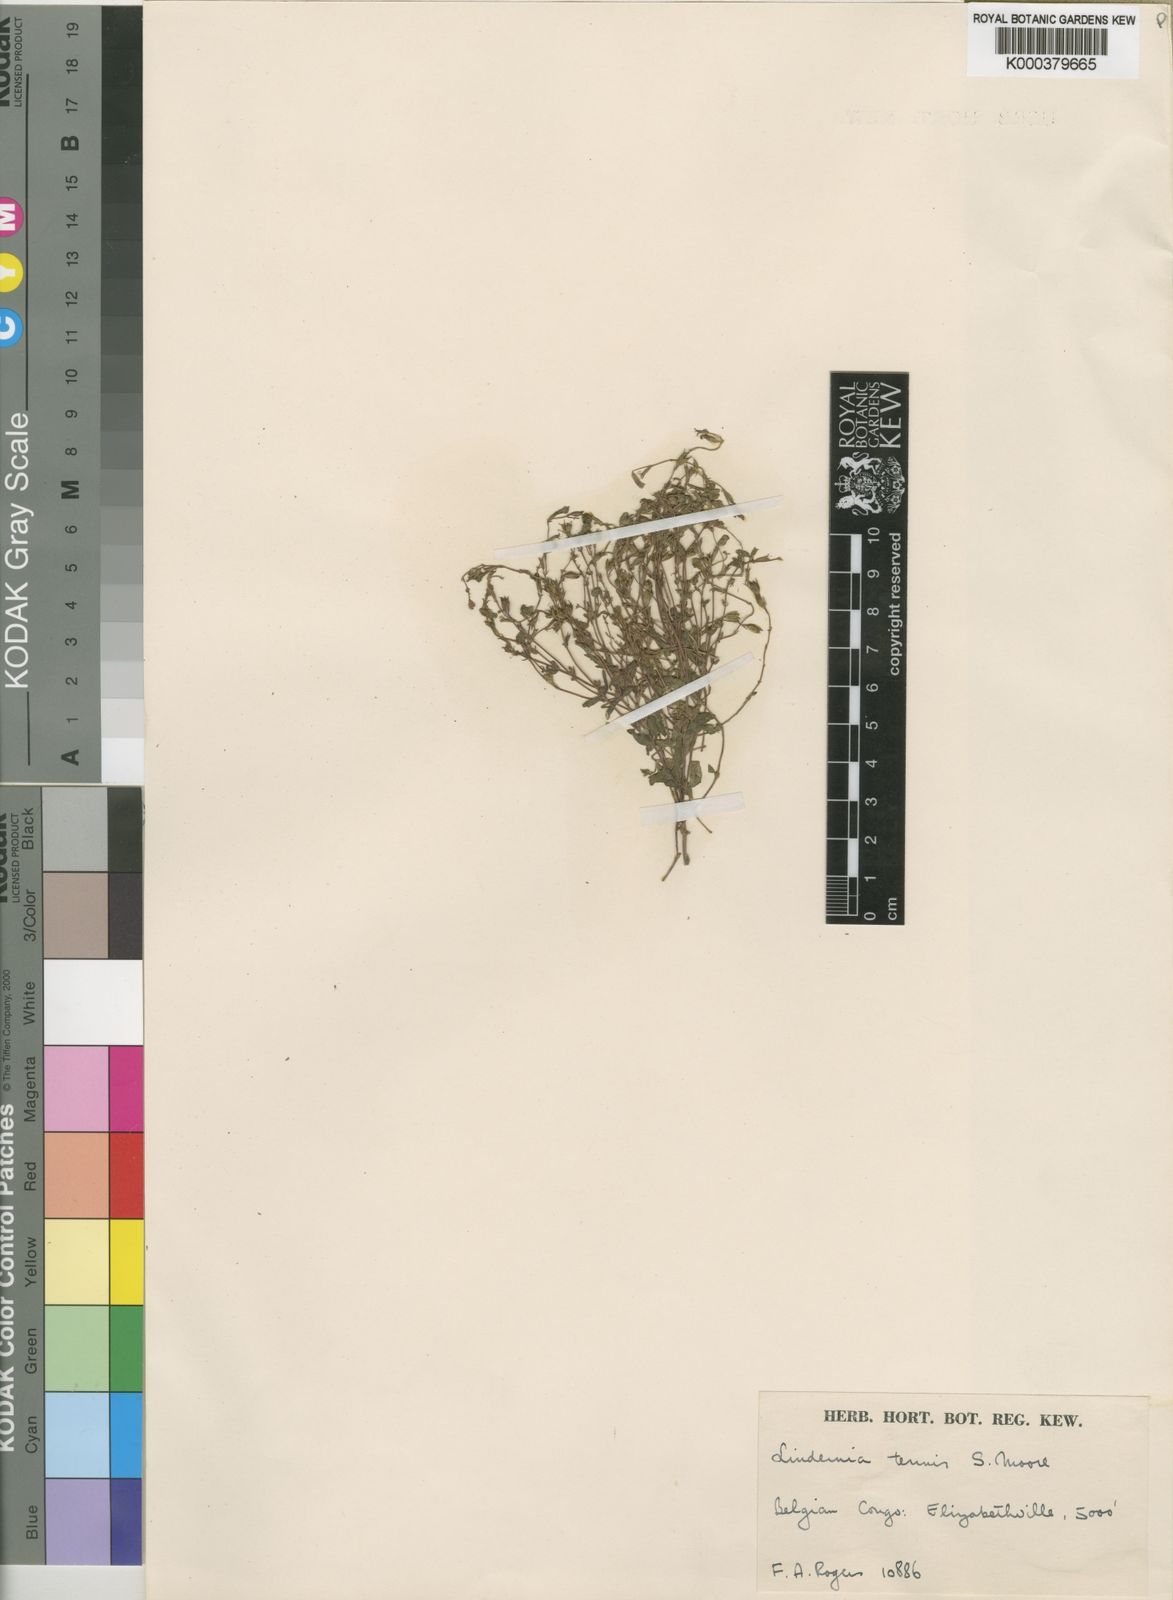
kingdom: Plantae
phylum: Tracheophyta
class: Magnoliopsida
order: Lamiales
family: Linderniaceae
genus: Crepidorhopalon
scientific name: Crepidorhopalon debilis
